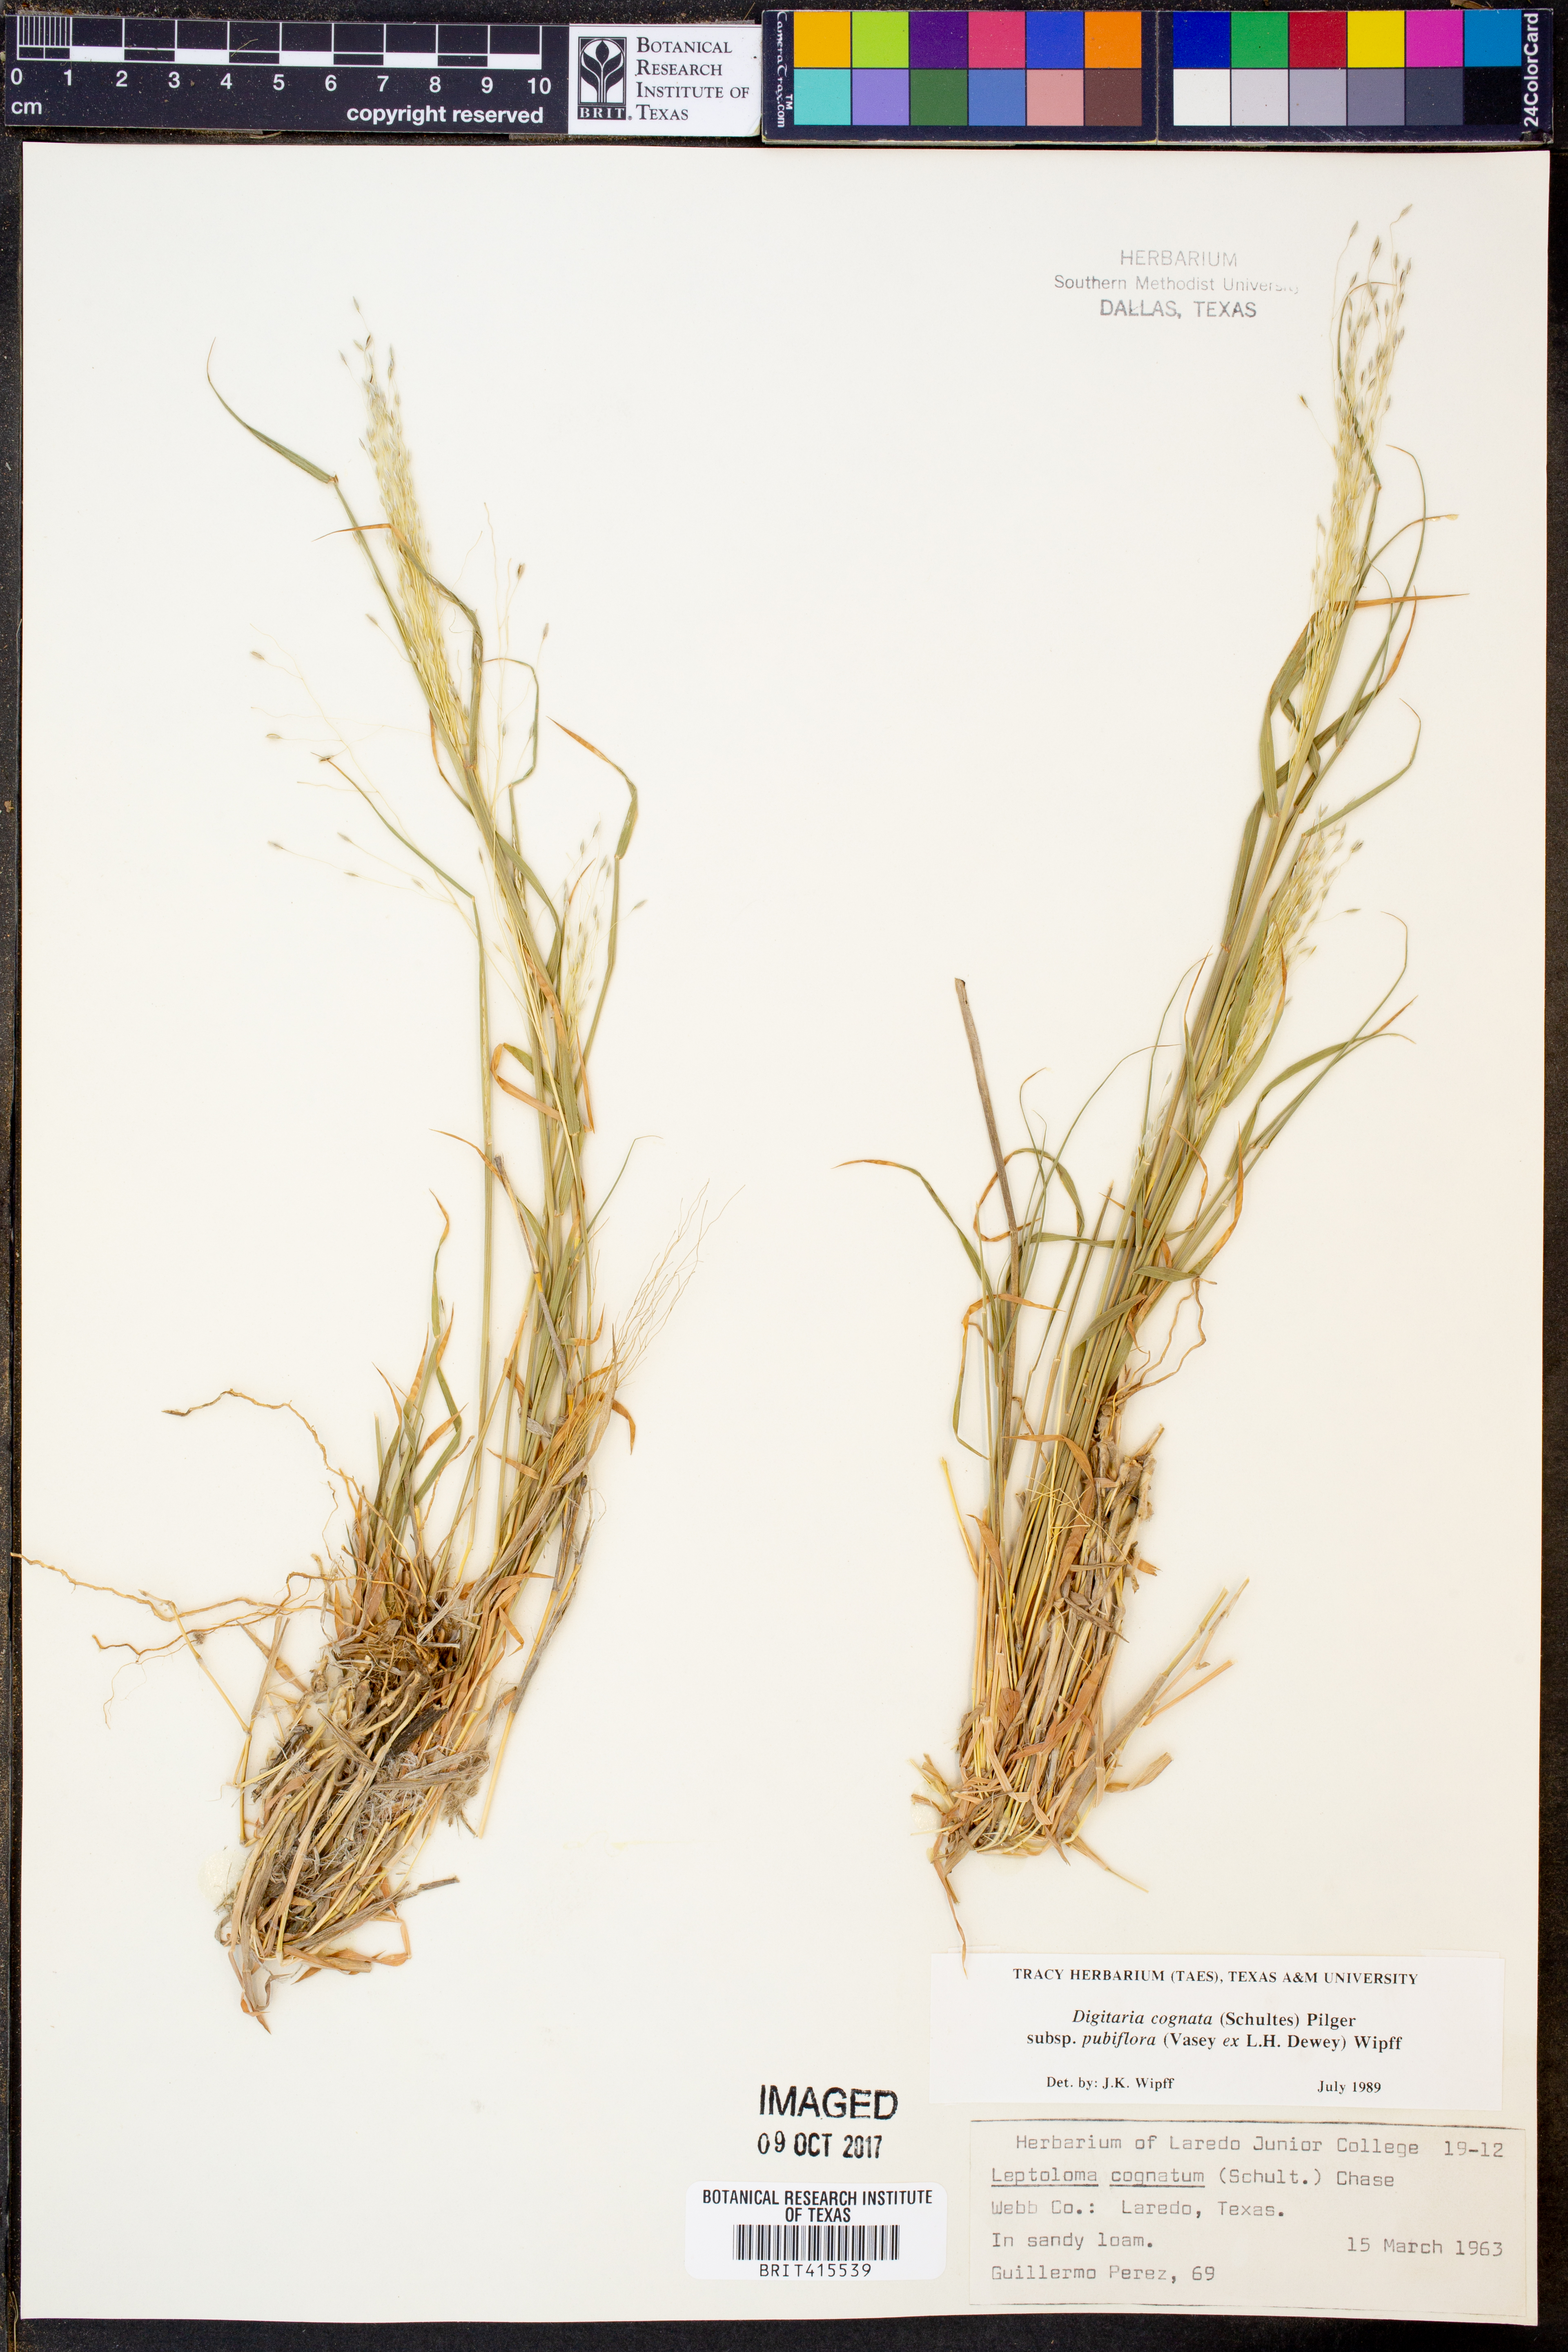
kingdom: Plantae
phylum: Tracheophyta
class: Liliopsida
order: Poales
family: Poaceae
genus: Digitaria
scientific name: Digitaria cognata
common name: Fall witchgrass
